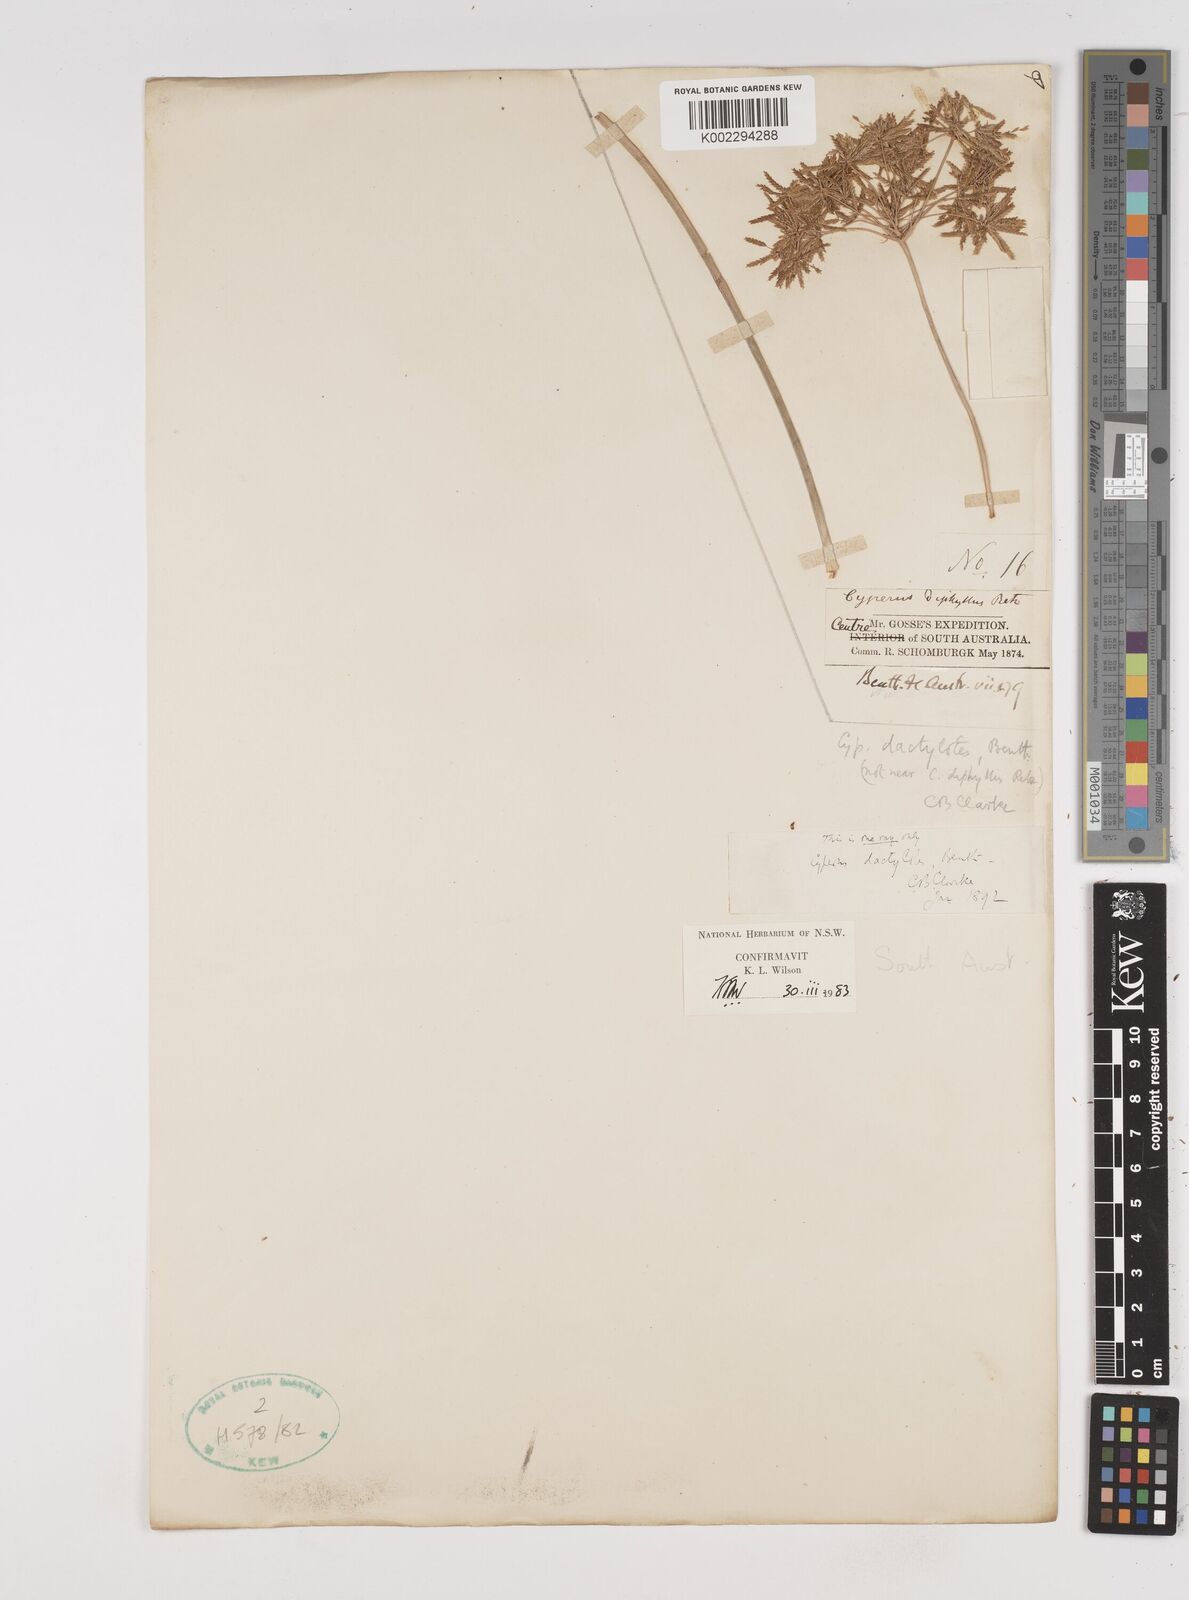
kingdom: Plantae
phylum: Tracheophyta
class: Liliopsida
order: Poales
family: Cyperaceae
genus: Cyperus
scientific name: Cyperus dactylotes
